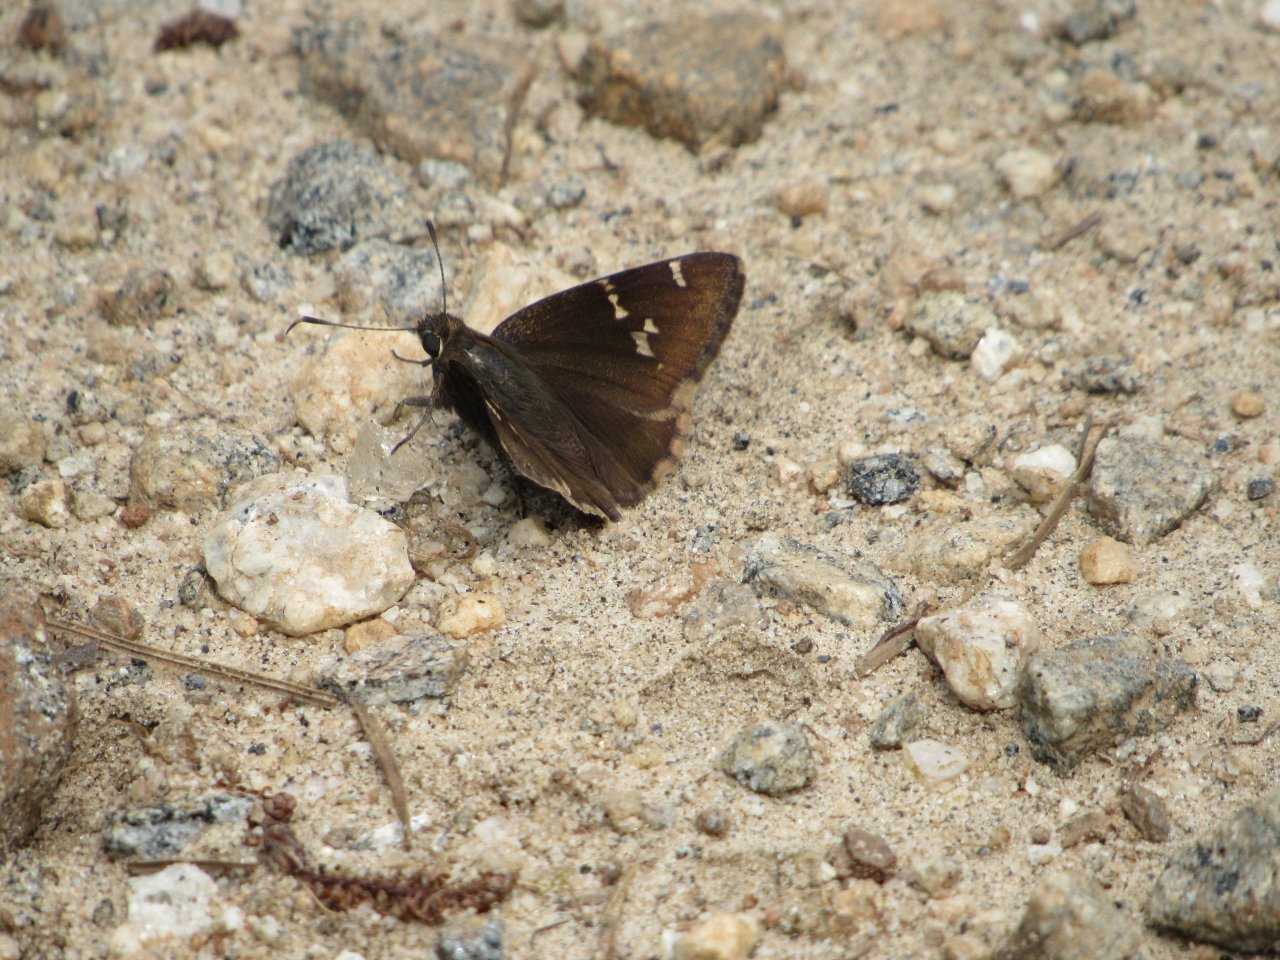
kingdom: Animalia
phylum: Arthropoda
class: Insecta
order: Lepidoptera
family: Hesperiidae
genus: Autochton
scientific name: Autochton
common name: Southern Cloudywing
